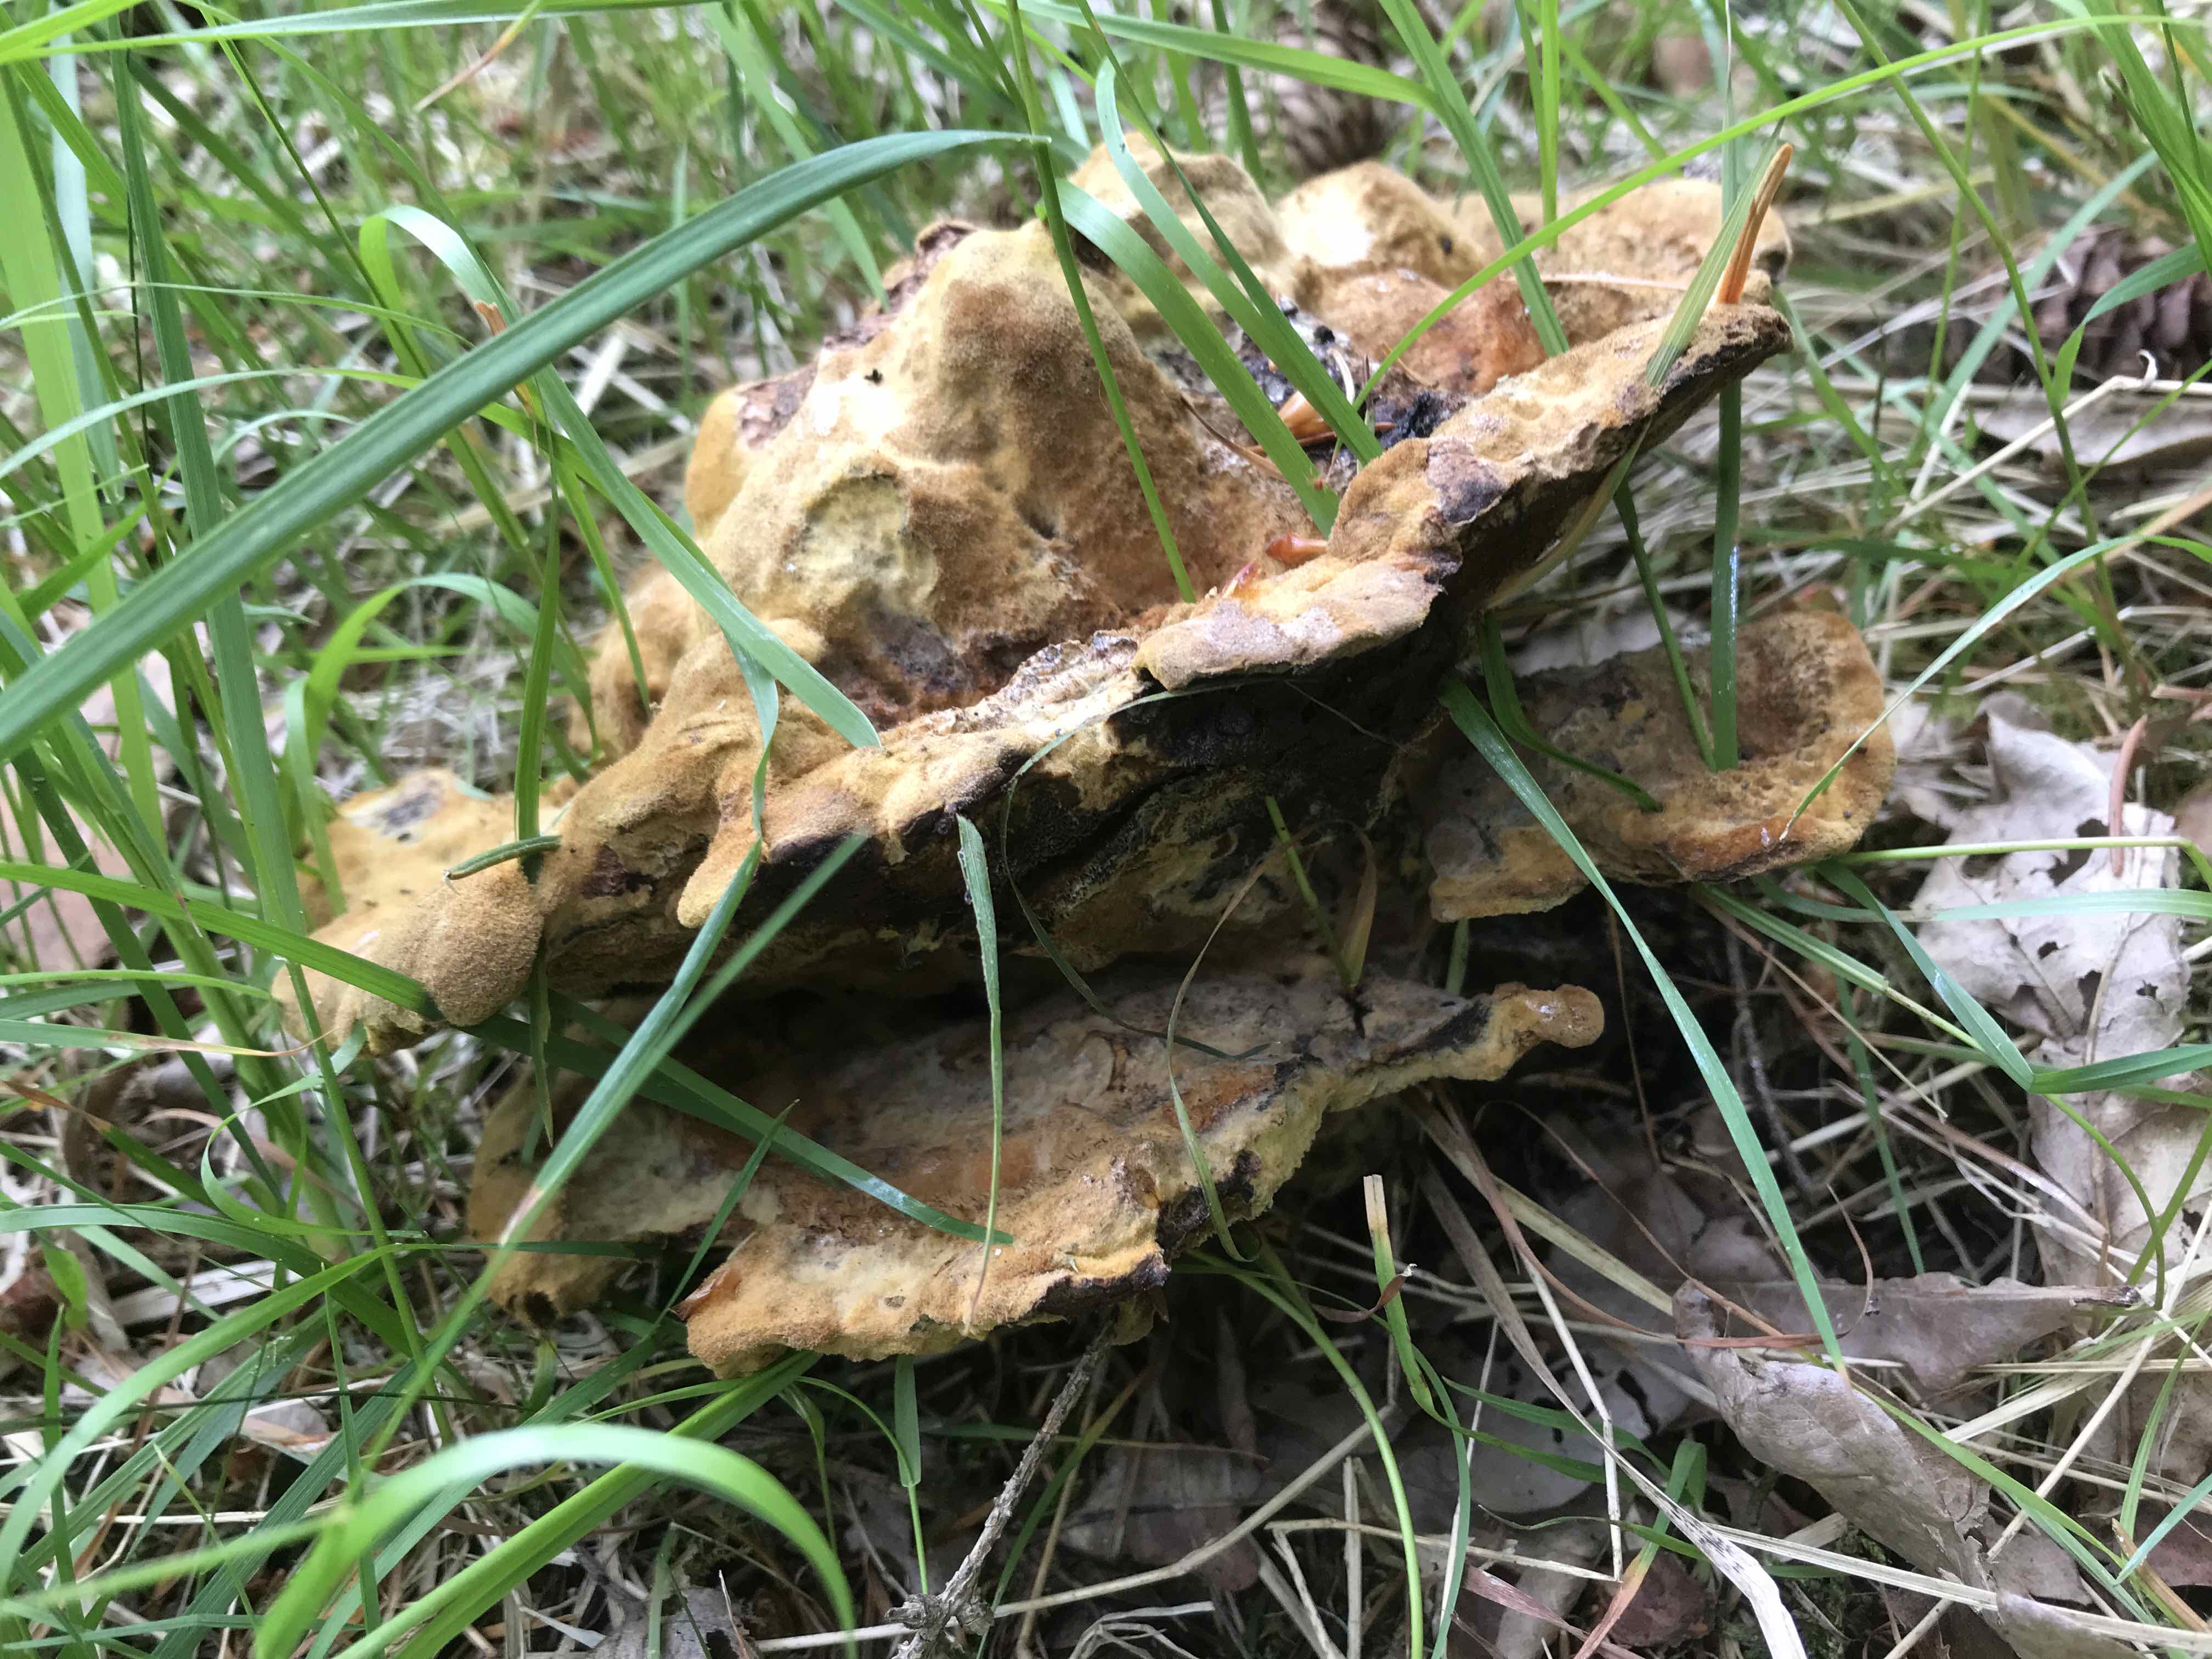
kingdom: Fungi
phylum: Basidiomycota
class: Agaricomycetes
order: Polyporales
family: Laetiporaceae
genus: Phaeolus
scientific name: Phaeolus schweinitzii
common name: brunporesvamp
